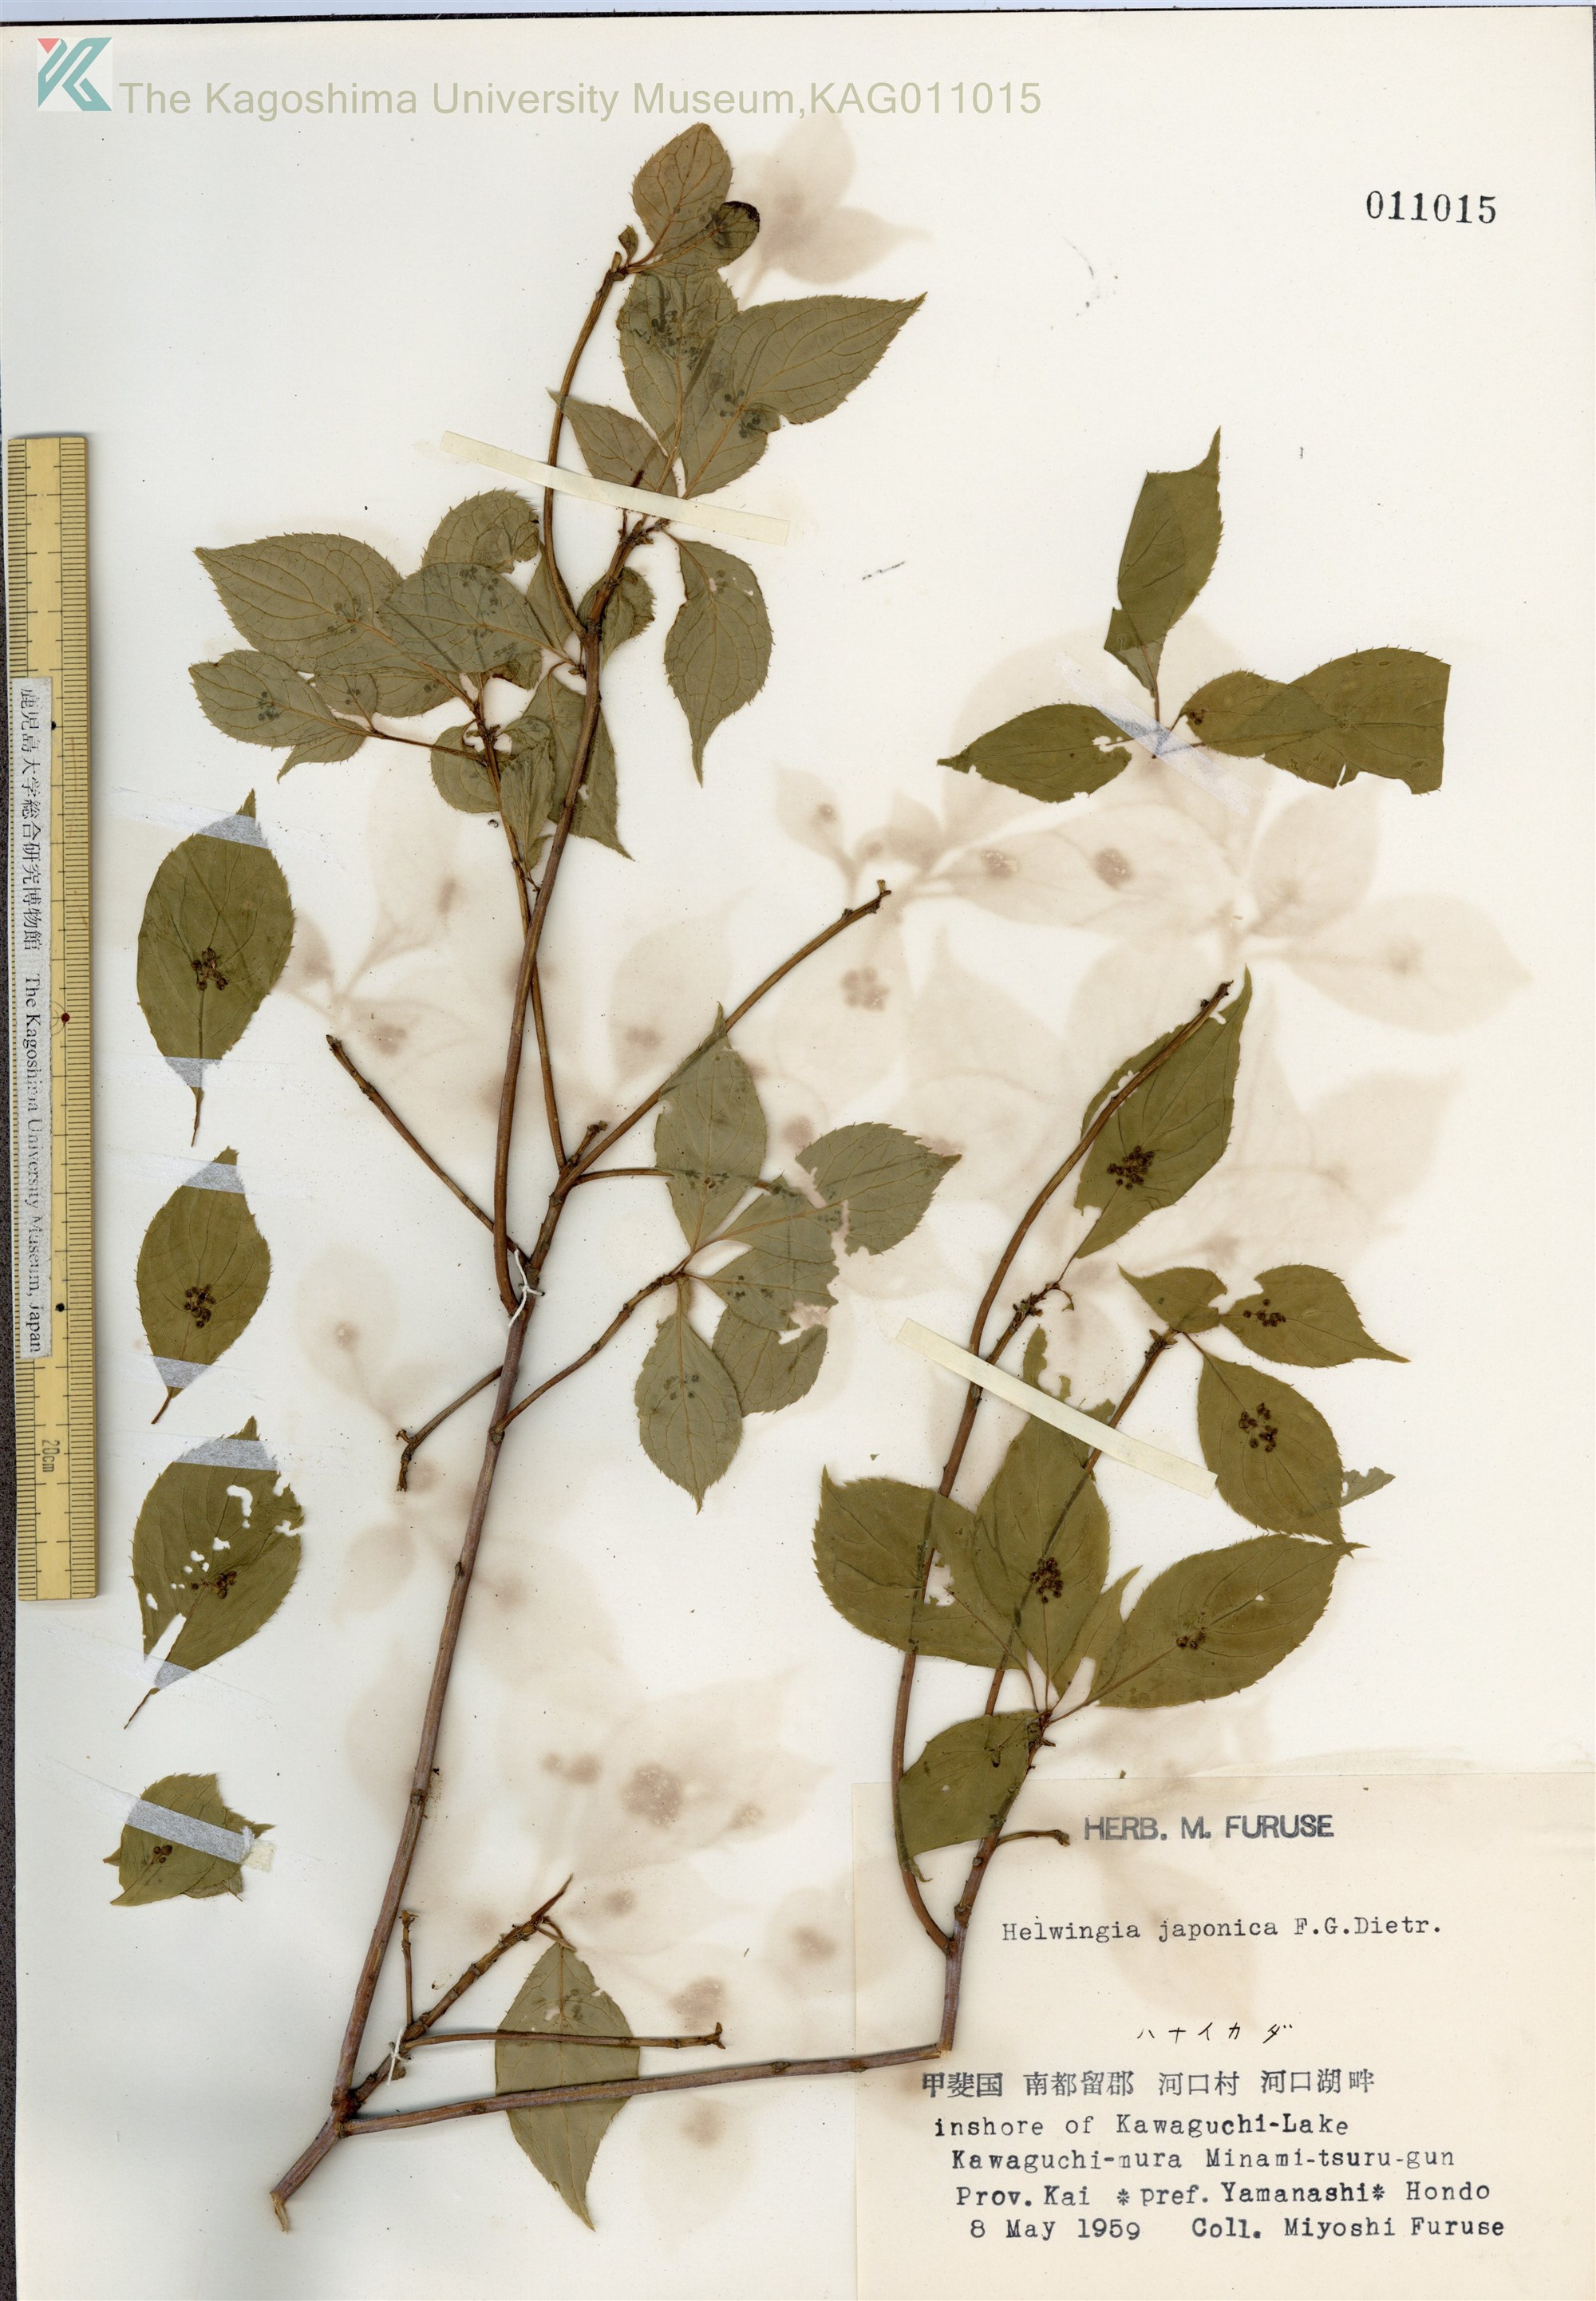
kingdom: Plantae
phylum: Tracheophyta
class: Magnoliopsida
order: Aquifoliales
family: Helwingiaceae
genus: Helwingia
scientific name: Helwingia japonica
